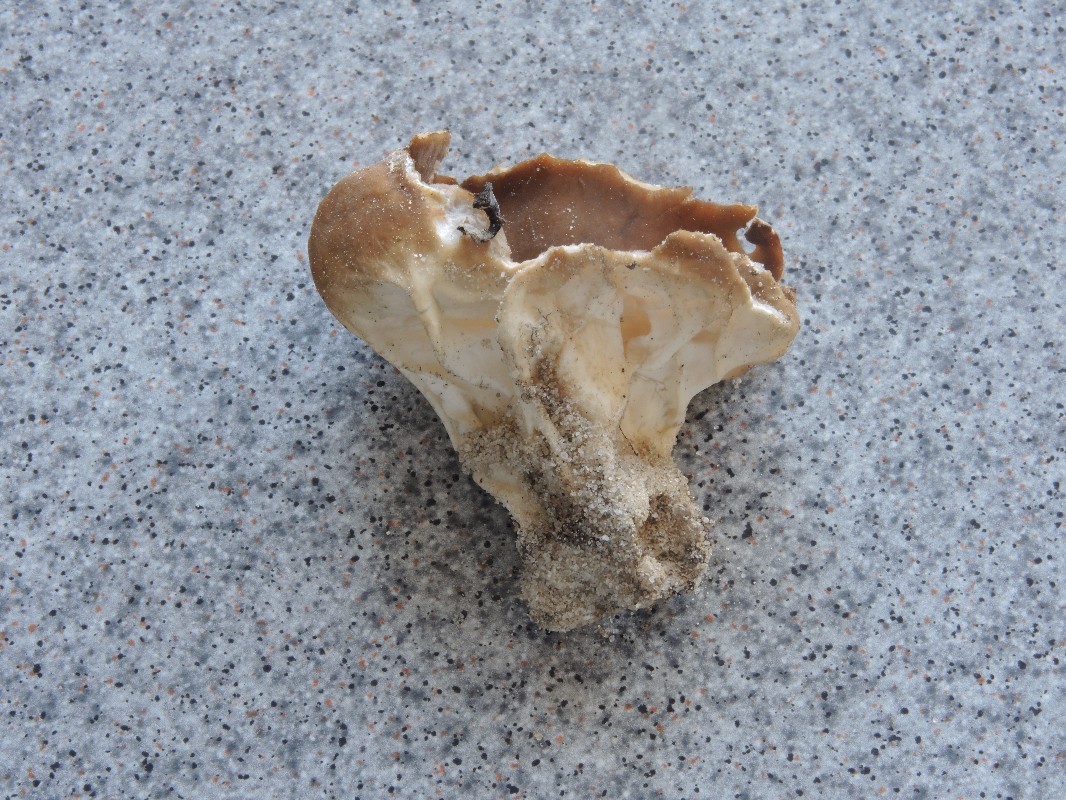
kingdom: Fungi
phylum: Ascomycota
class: Pezizomycetes
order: Pezizales
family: Helvellaceae
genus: Helvella
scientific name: Helvella acetabulum
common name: pokal-foldhat
